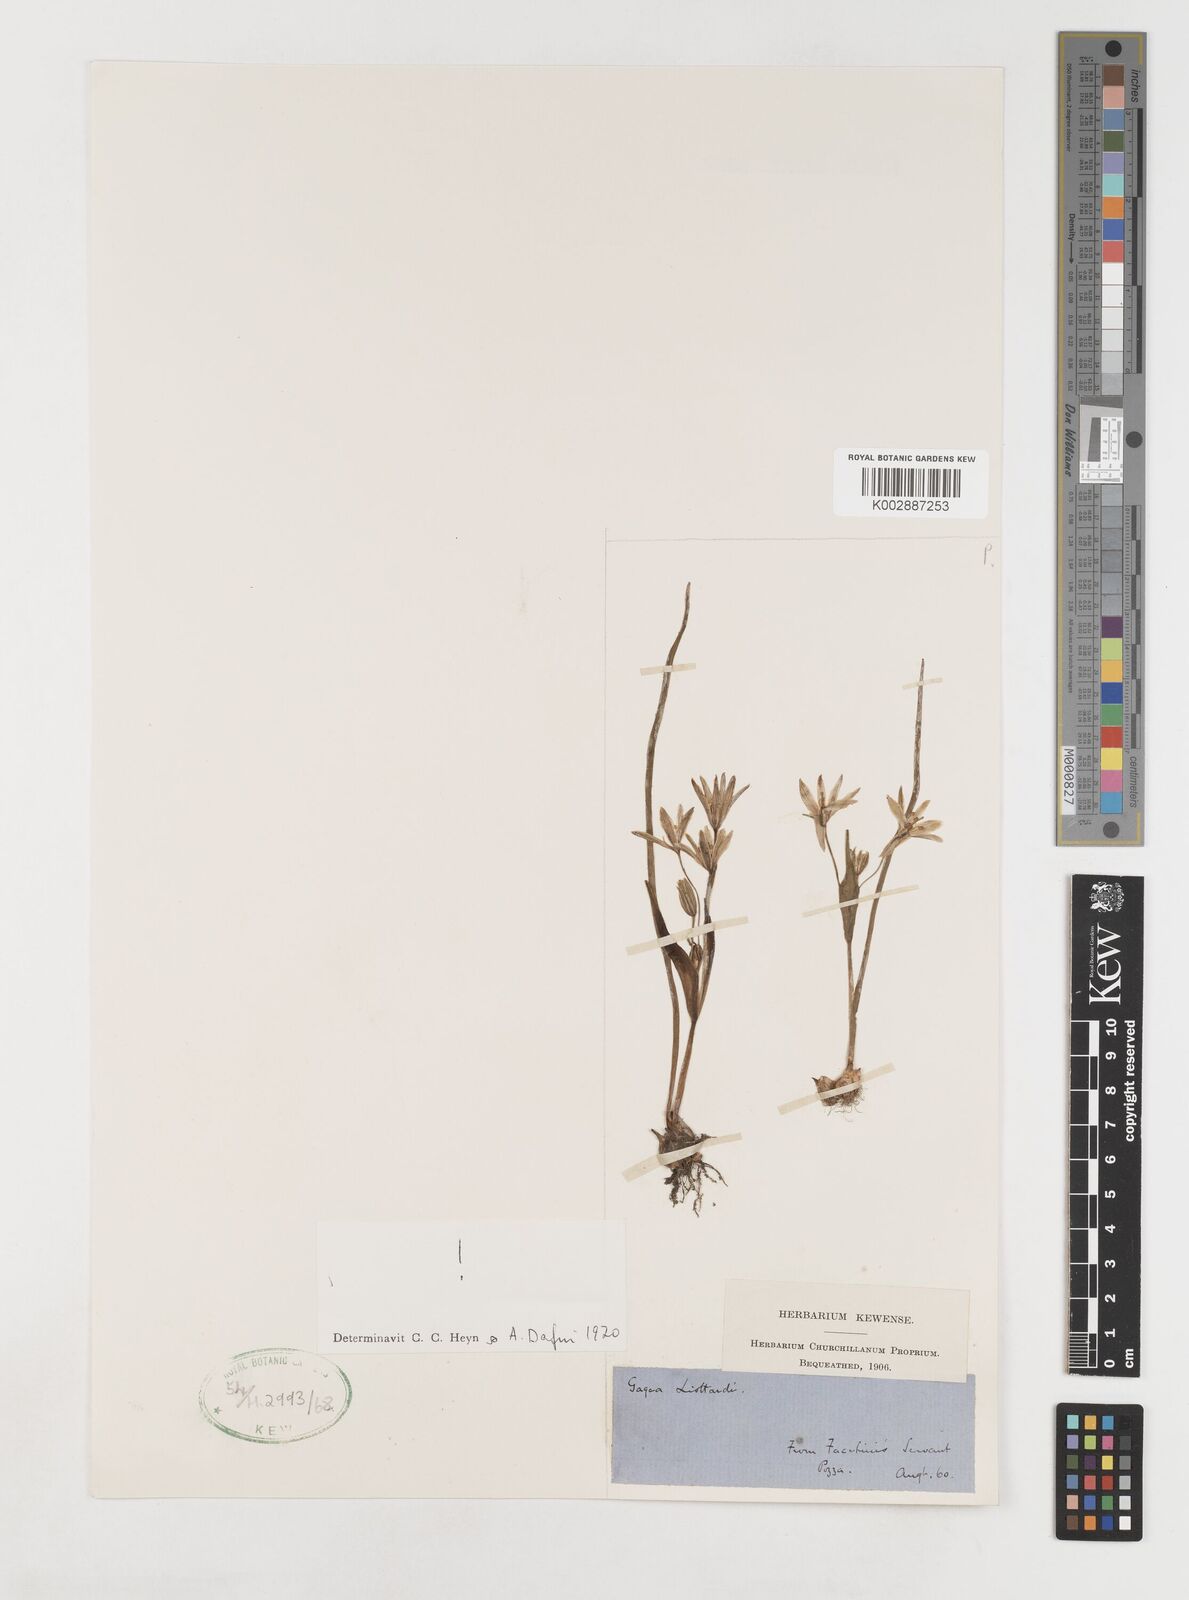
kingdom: Plantae
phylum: Tracheophyta
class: Liliopsida
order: Liliales
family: Liliaceae
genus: Gagea
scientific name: Gagea fragifera
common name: Lily
